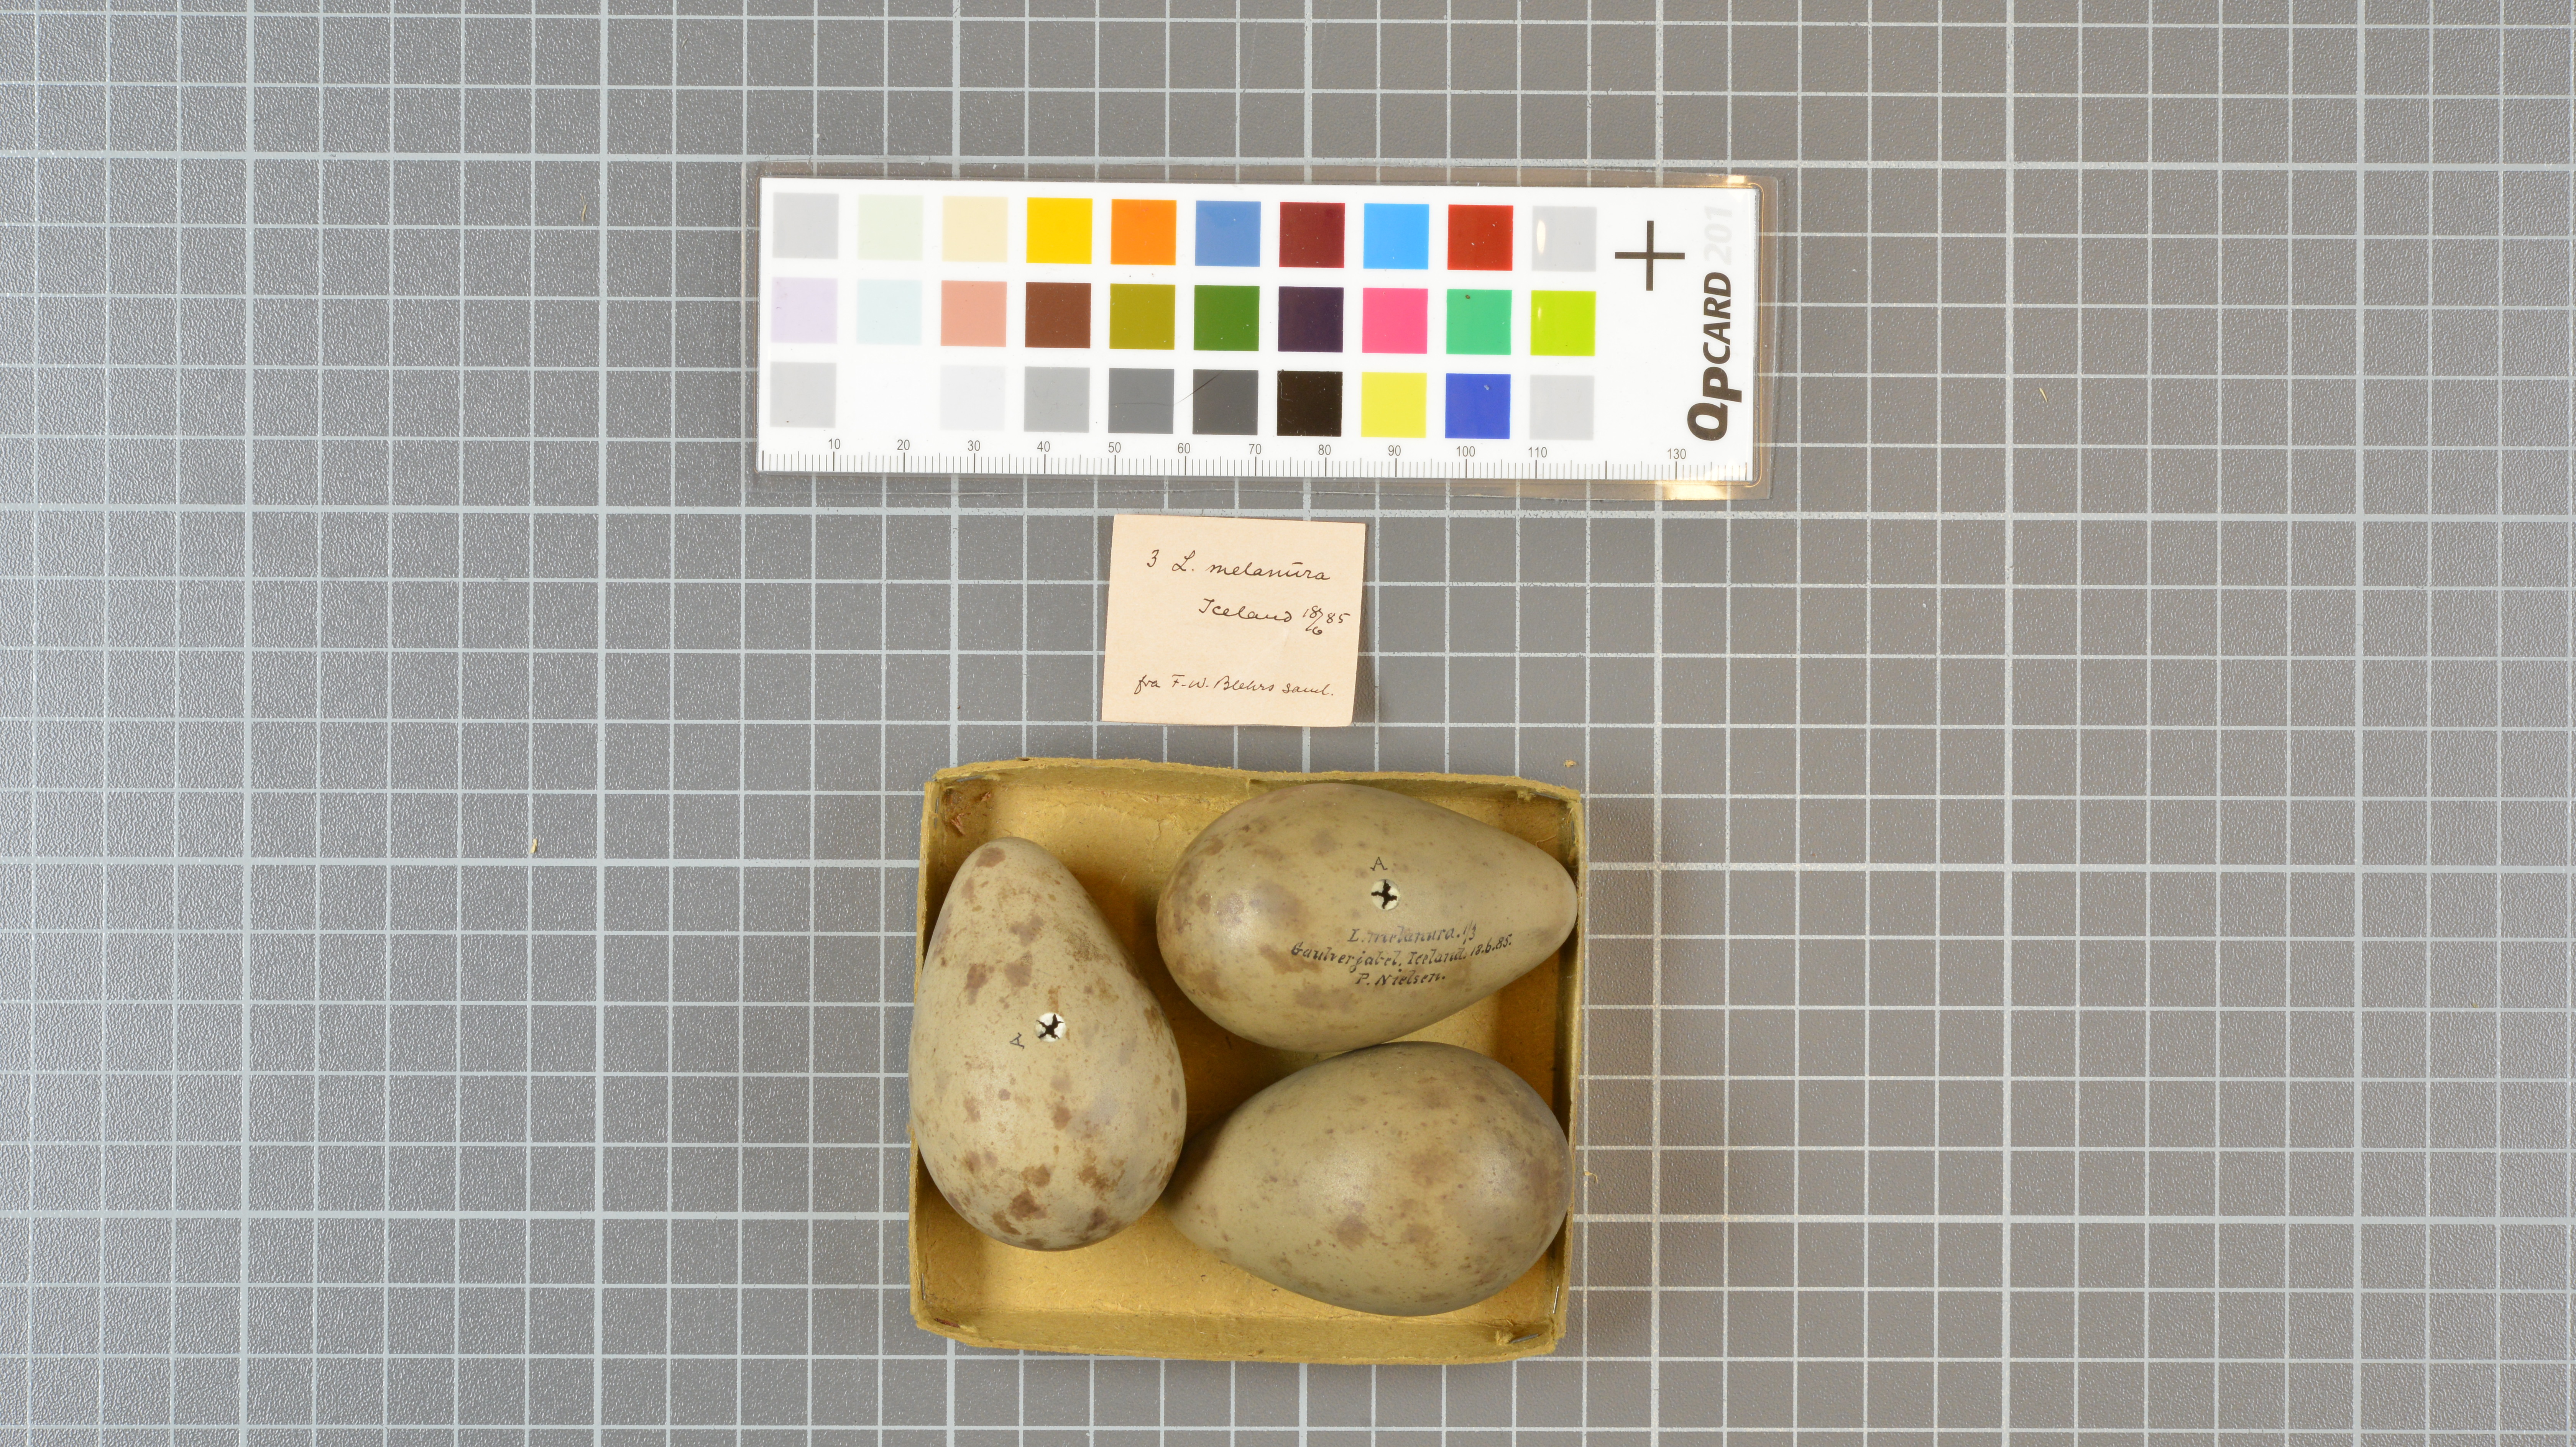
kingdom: Animalia
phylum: Chordata
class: Aves
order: Charadriiformes
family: Scolopacidae
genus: Limosa
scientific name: Limosa limosa
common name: Black-tailed godwit
